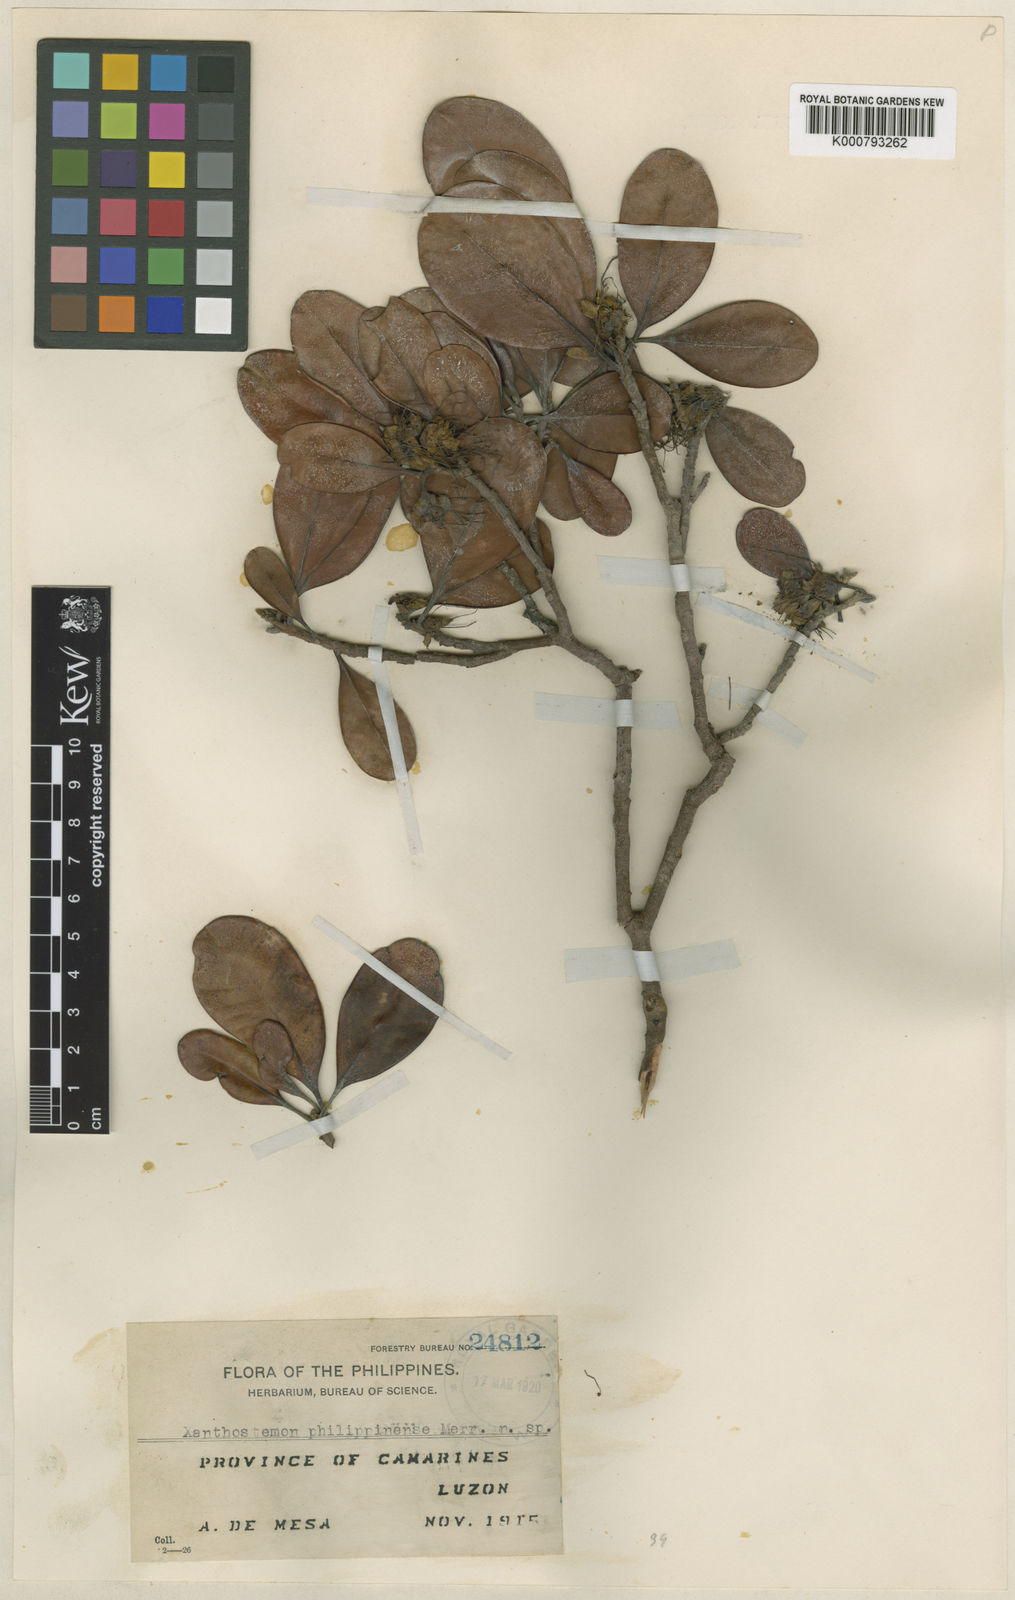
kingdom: Plantae
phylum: Tracheophyta
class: Magnoliopsida
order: Myrtales
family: Myrtaceae
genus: Xanthostemon
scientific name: Xanthostemon philippinensis
